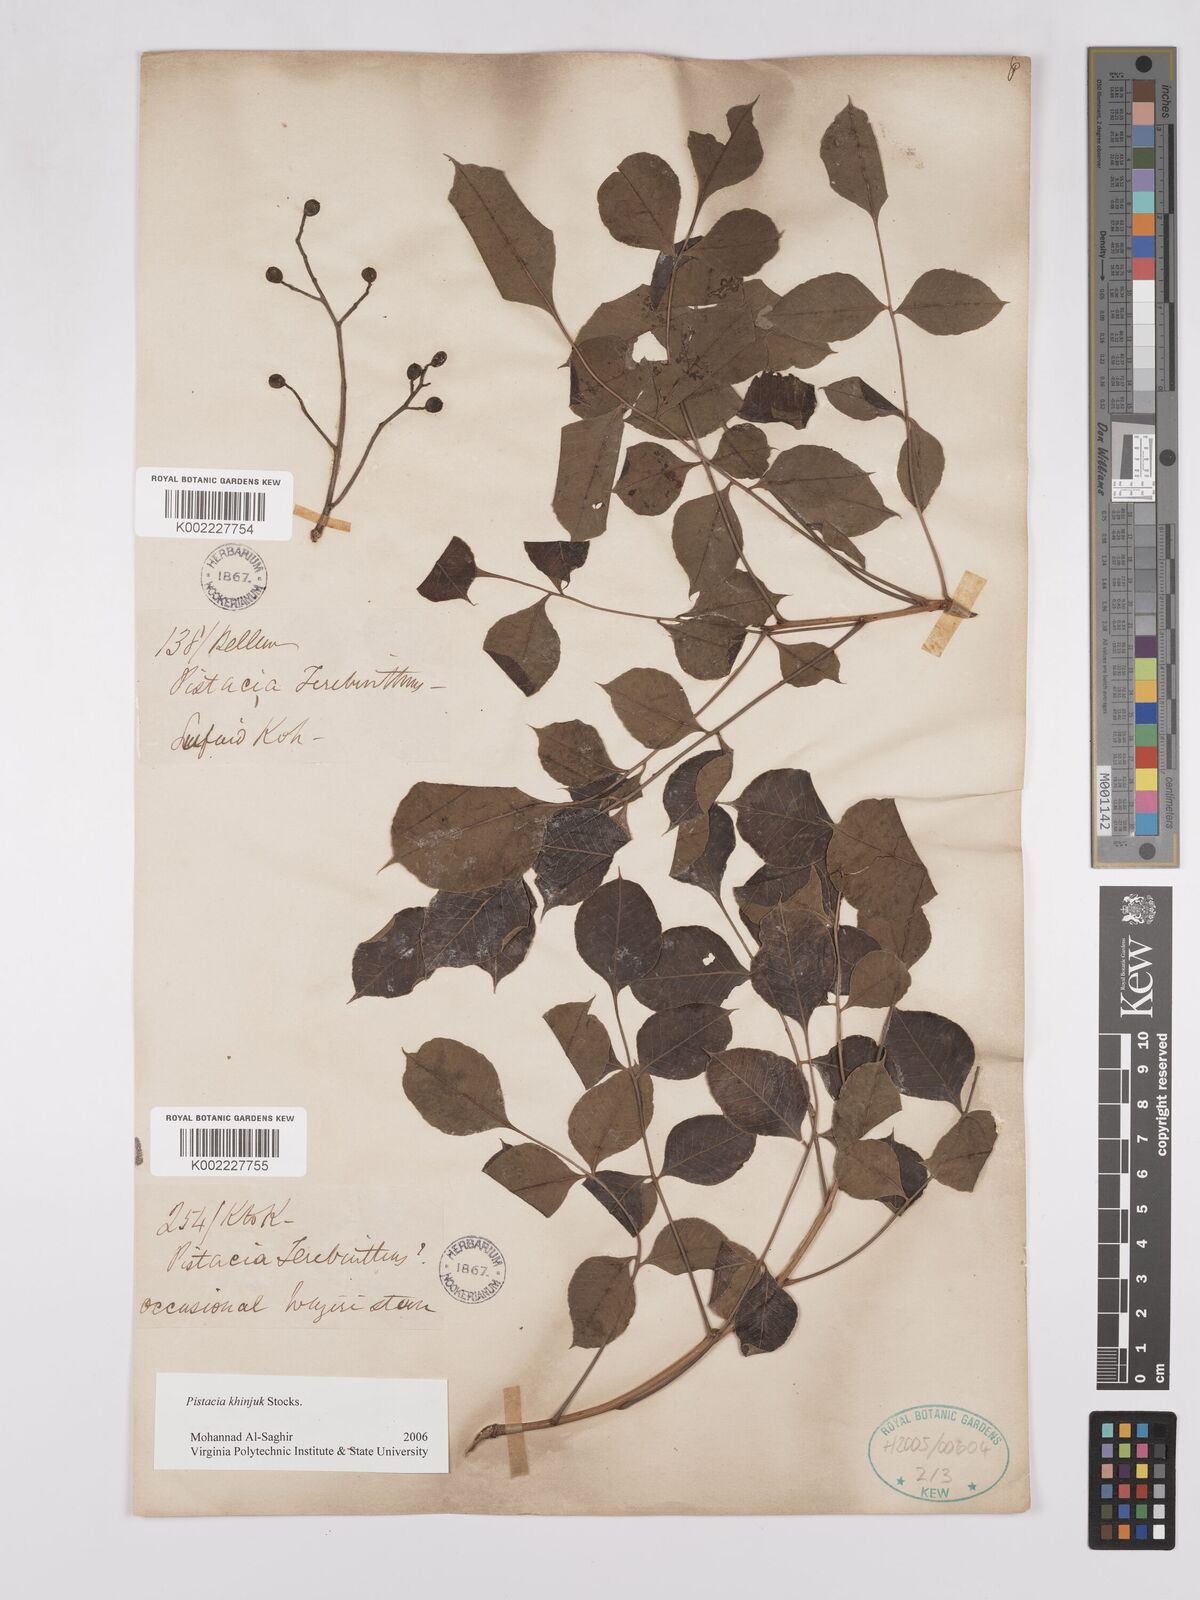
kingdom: Plantae
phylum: Tracheophyta
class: Magnoliopsida
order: Sapindales
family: Anacardiaceae
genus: Pistacia
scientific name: Pistacia
